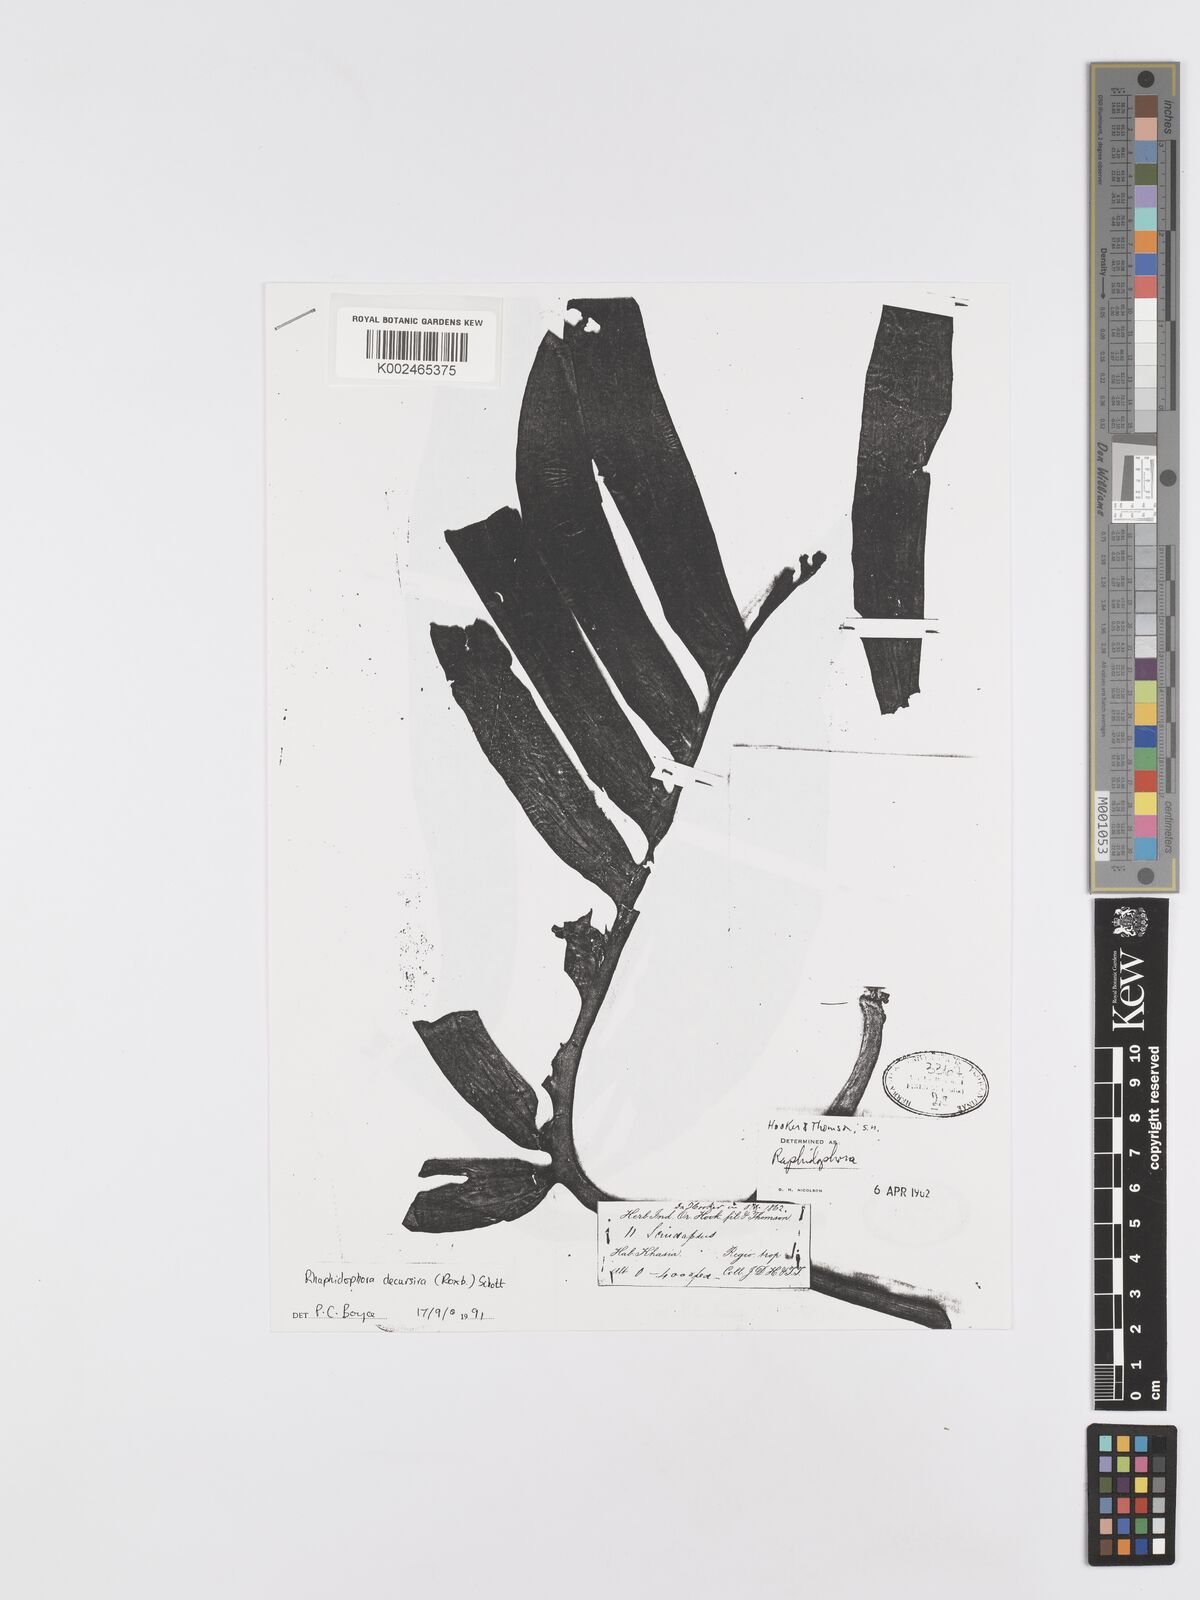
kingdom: Plantae
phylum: Tracheophyta
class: Liliopsida
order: Alismatales
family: Araceae
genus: Rhaphidophora
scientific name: Rhaphidophora decursiva
